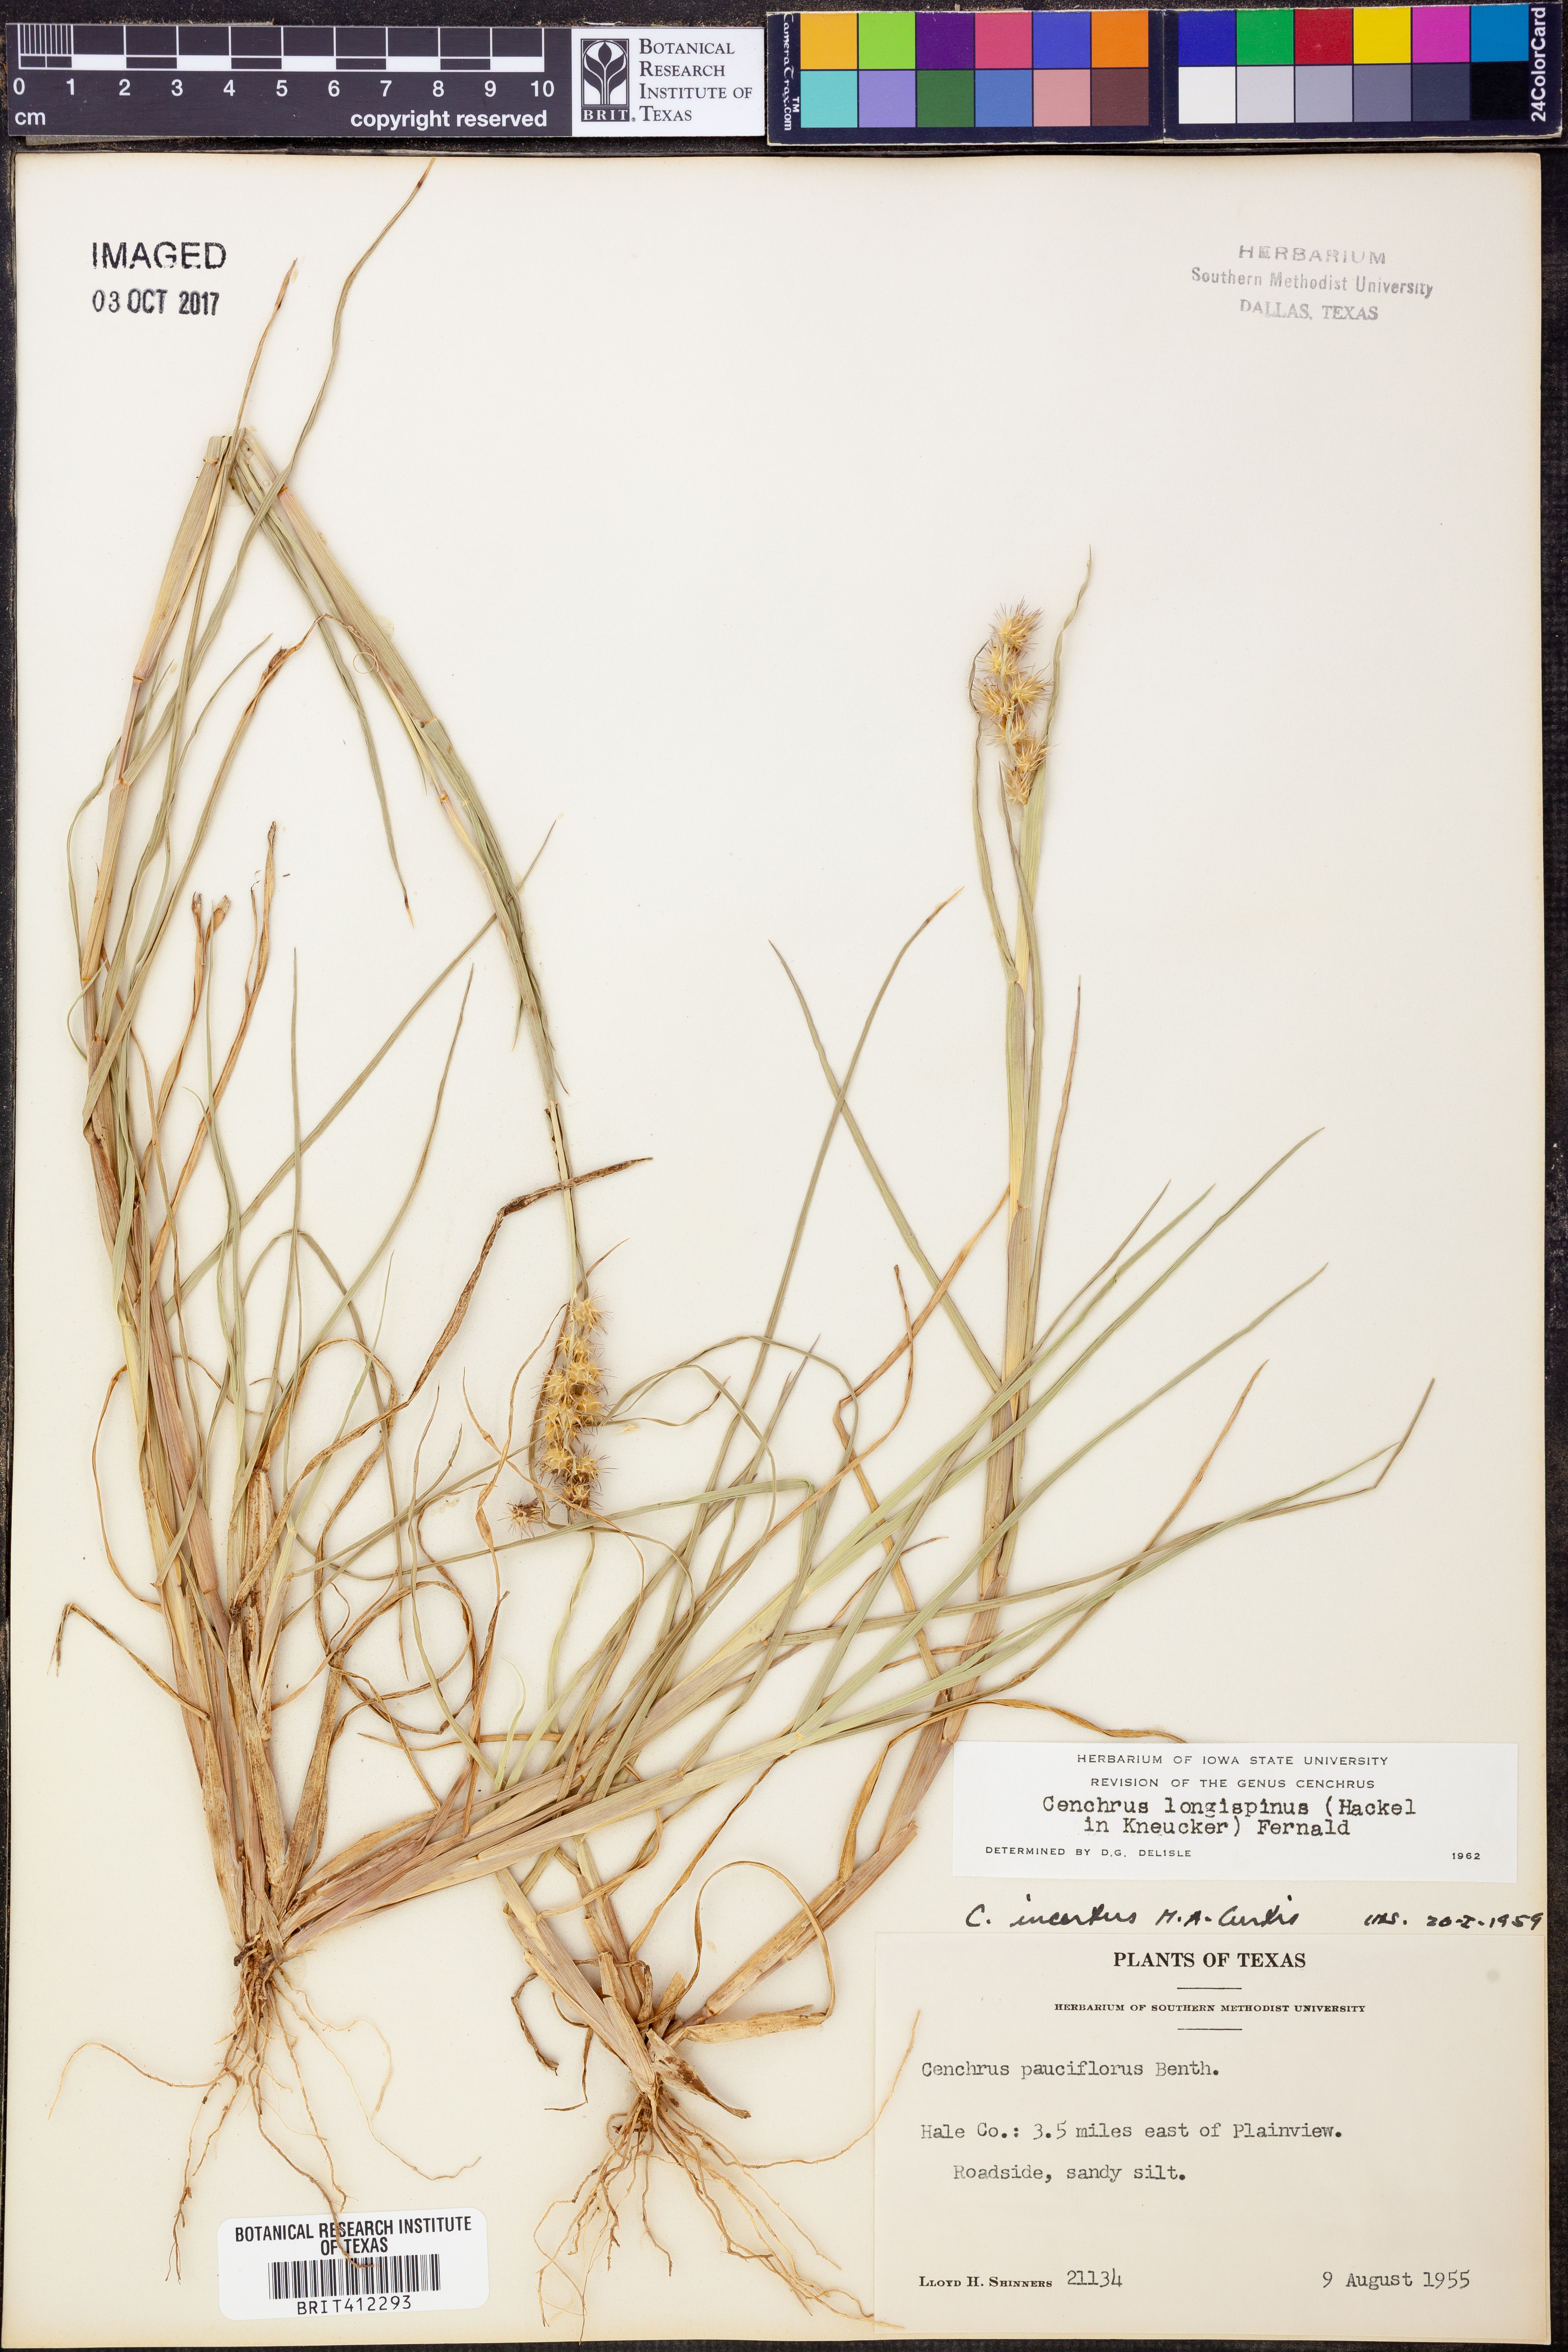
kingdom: Plantae
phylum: Tracheophyta
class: Liliopsida
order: Poales
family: Poaceae
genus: Cenchrus
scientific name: Cenchrus longispinus
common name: Mat sandbur
